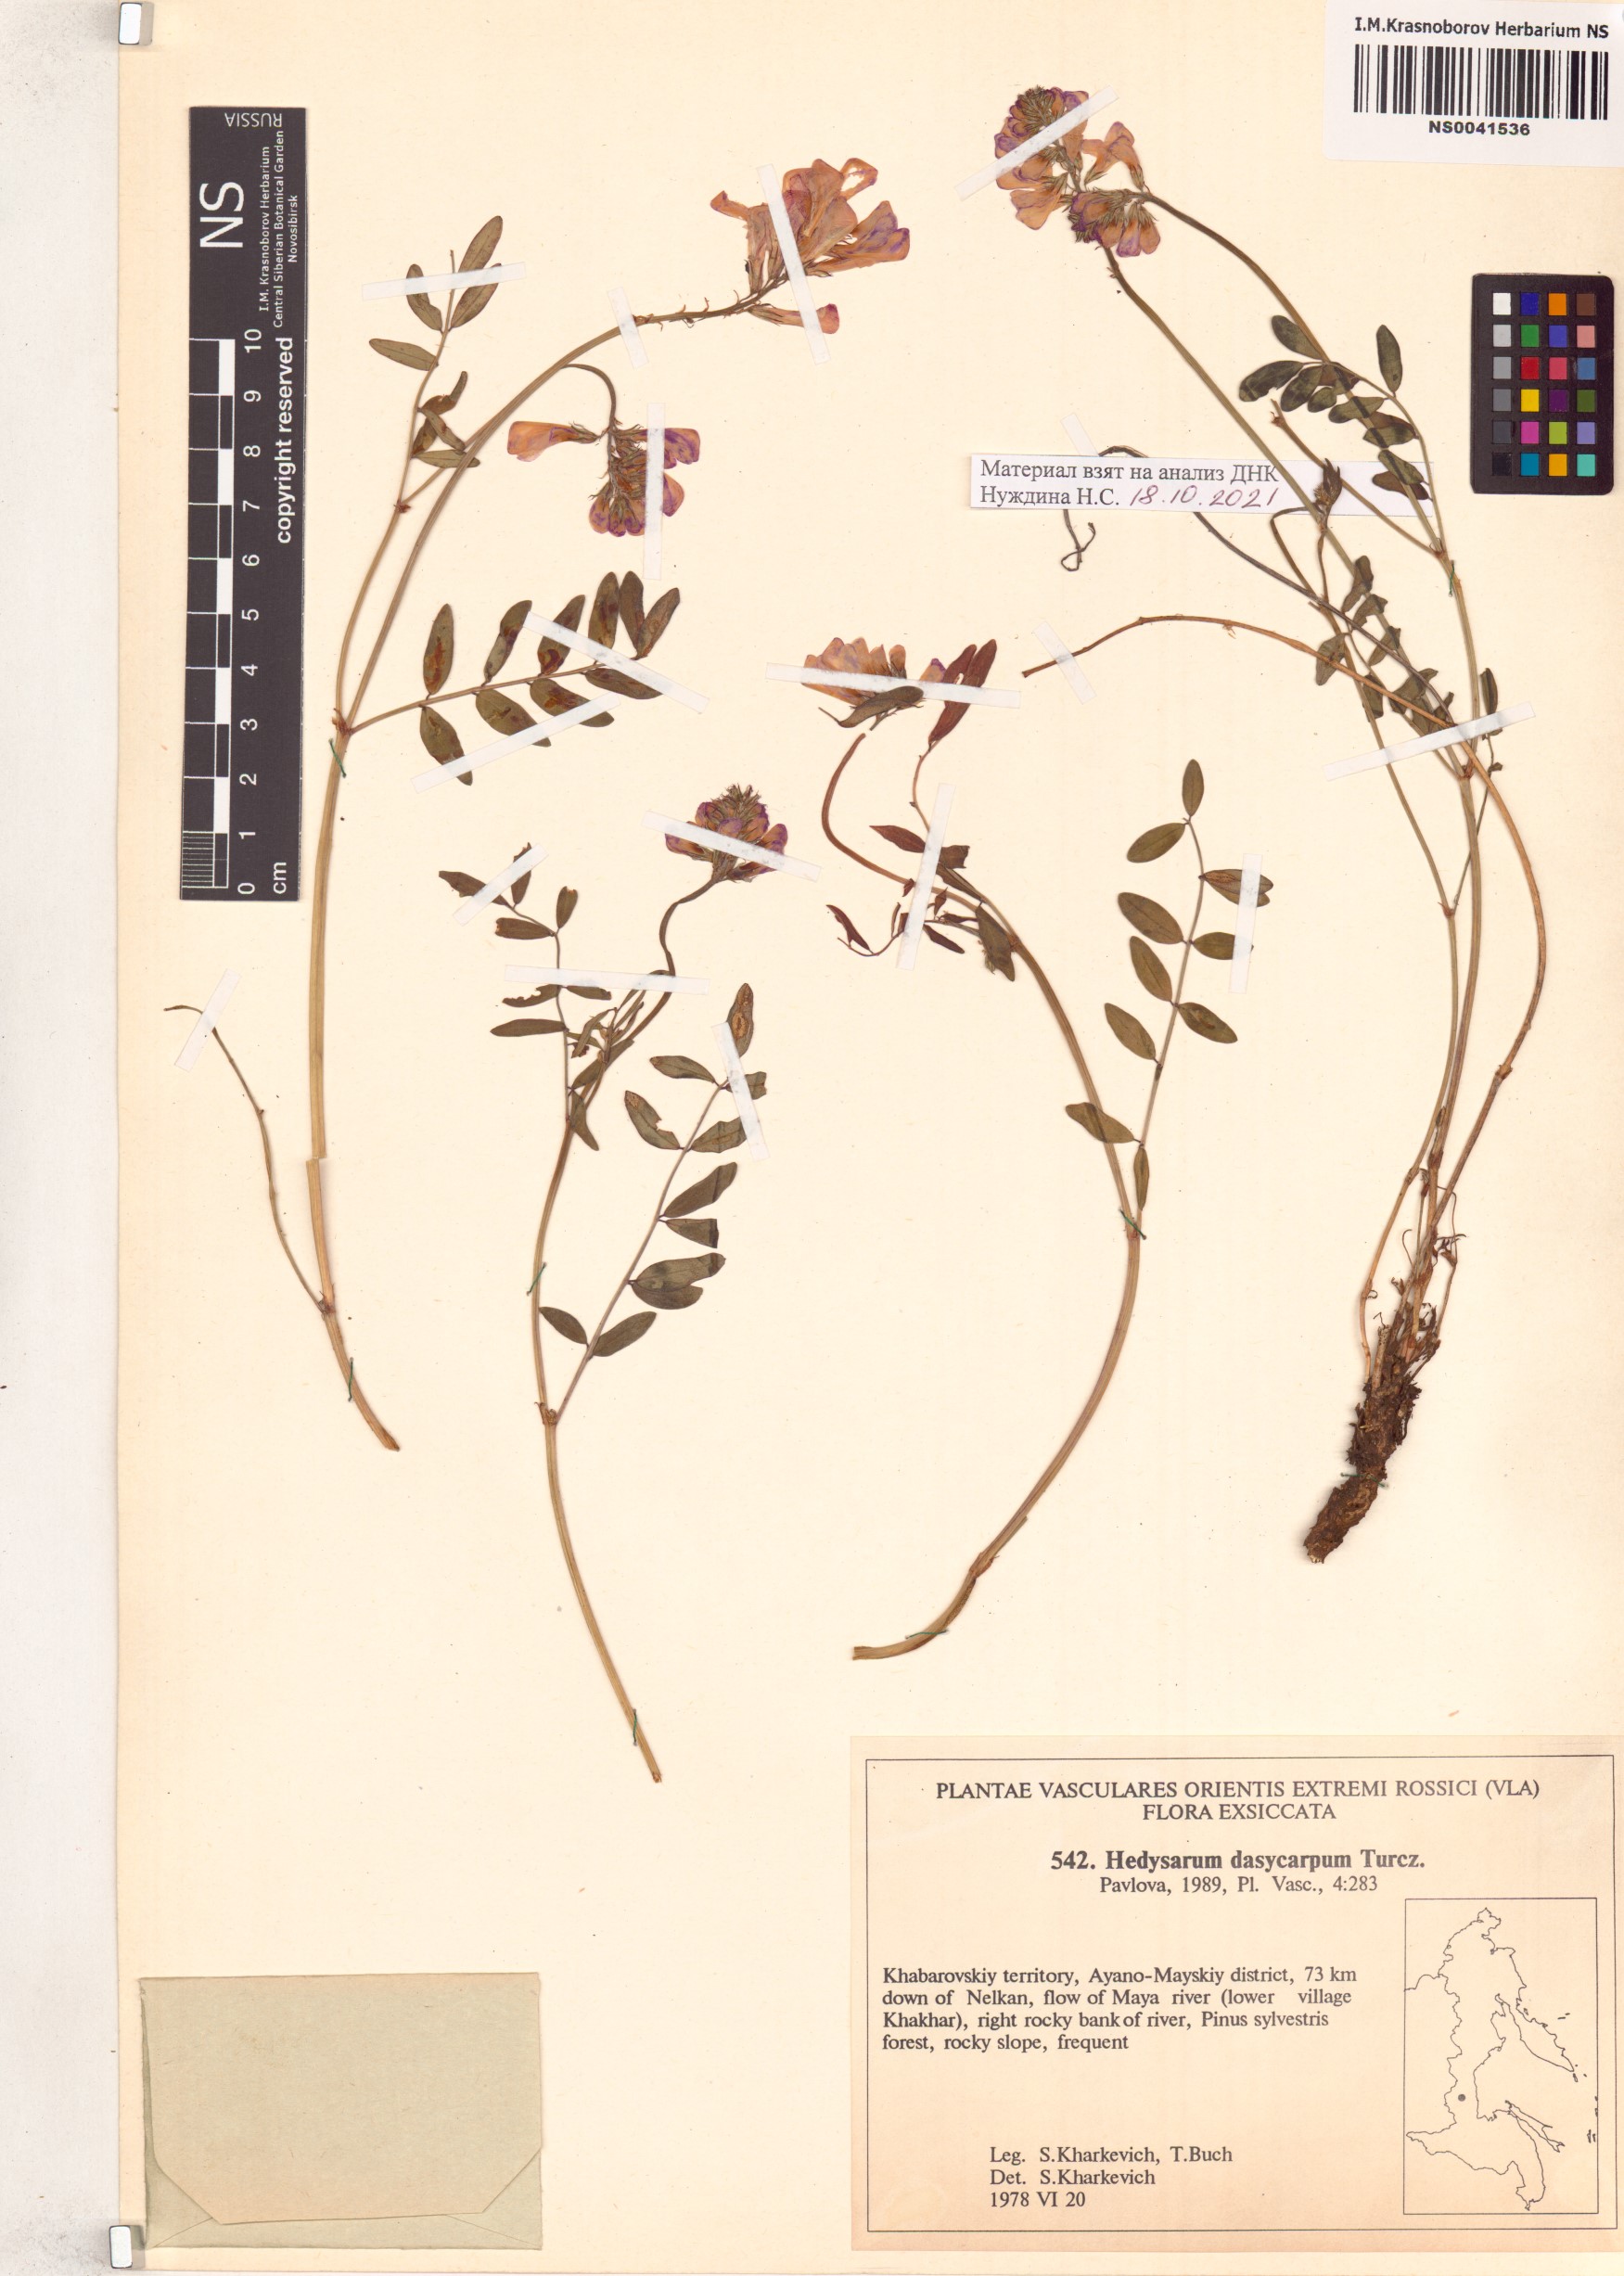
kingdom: Plantae
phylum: Tracheophyta
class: Magnoliopsida
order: Fabales
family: Fabaceae
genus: Hedysarum
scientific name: Hedysarum dasycarpum
